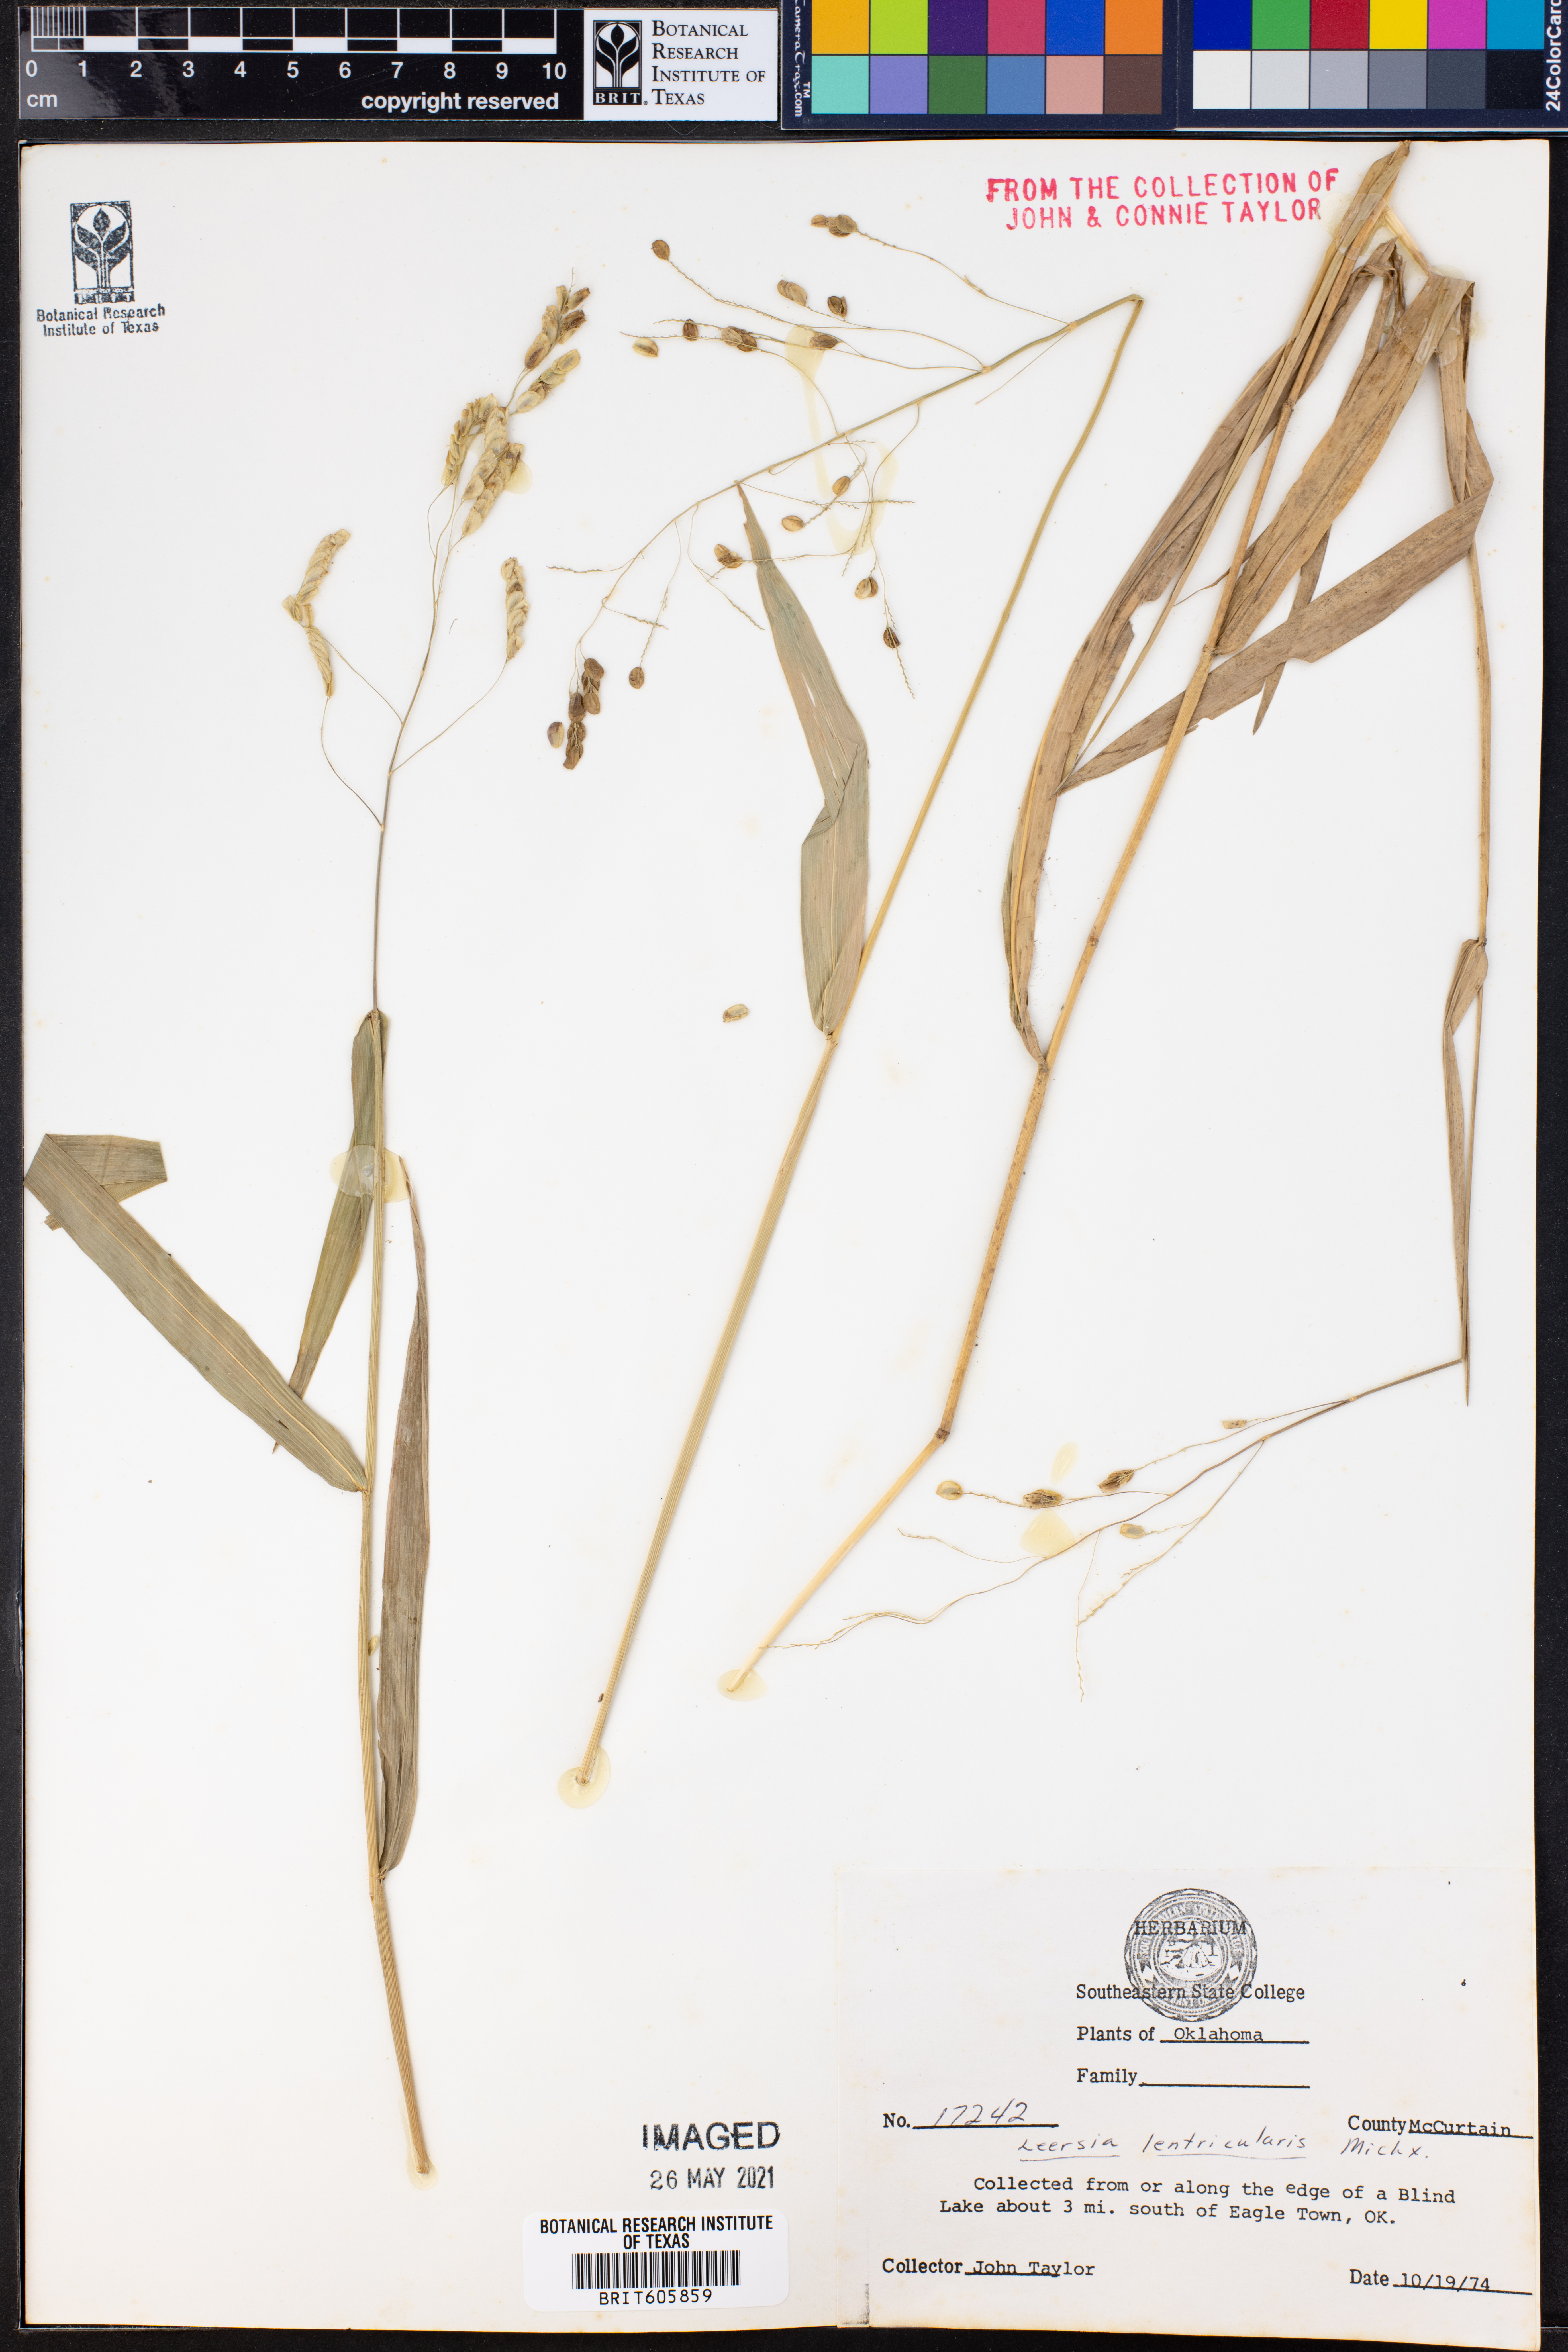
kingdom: Plantae
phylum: Tracheophyta
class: Liliopsida
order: Poales
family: Poaceae
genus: Leersia
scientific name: Leersia lenticularis
